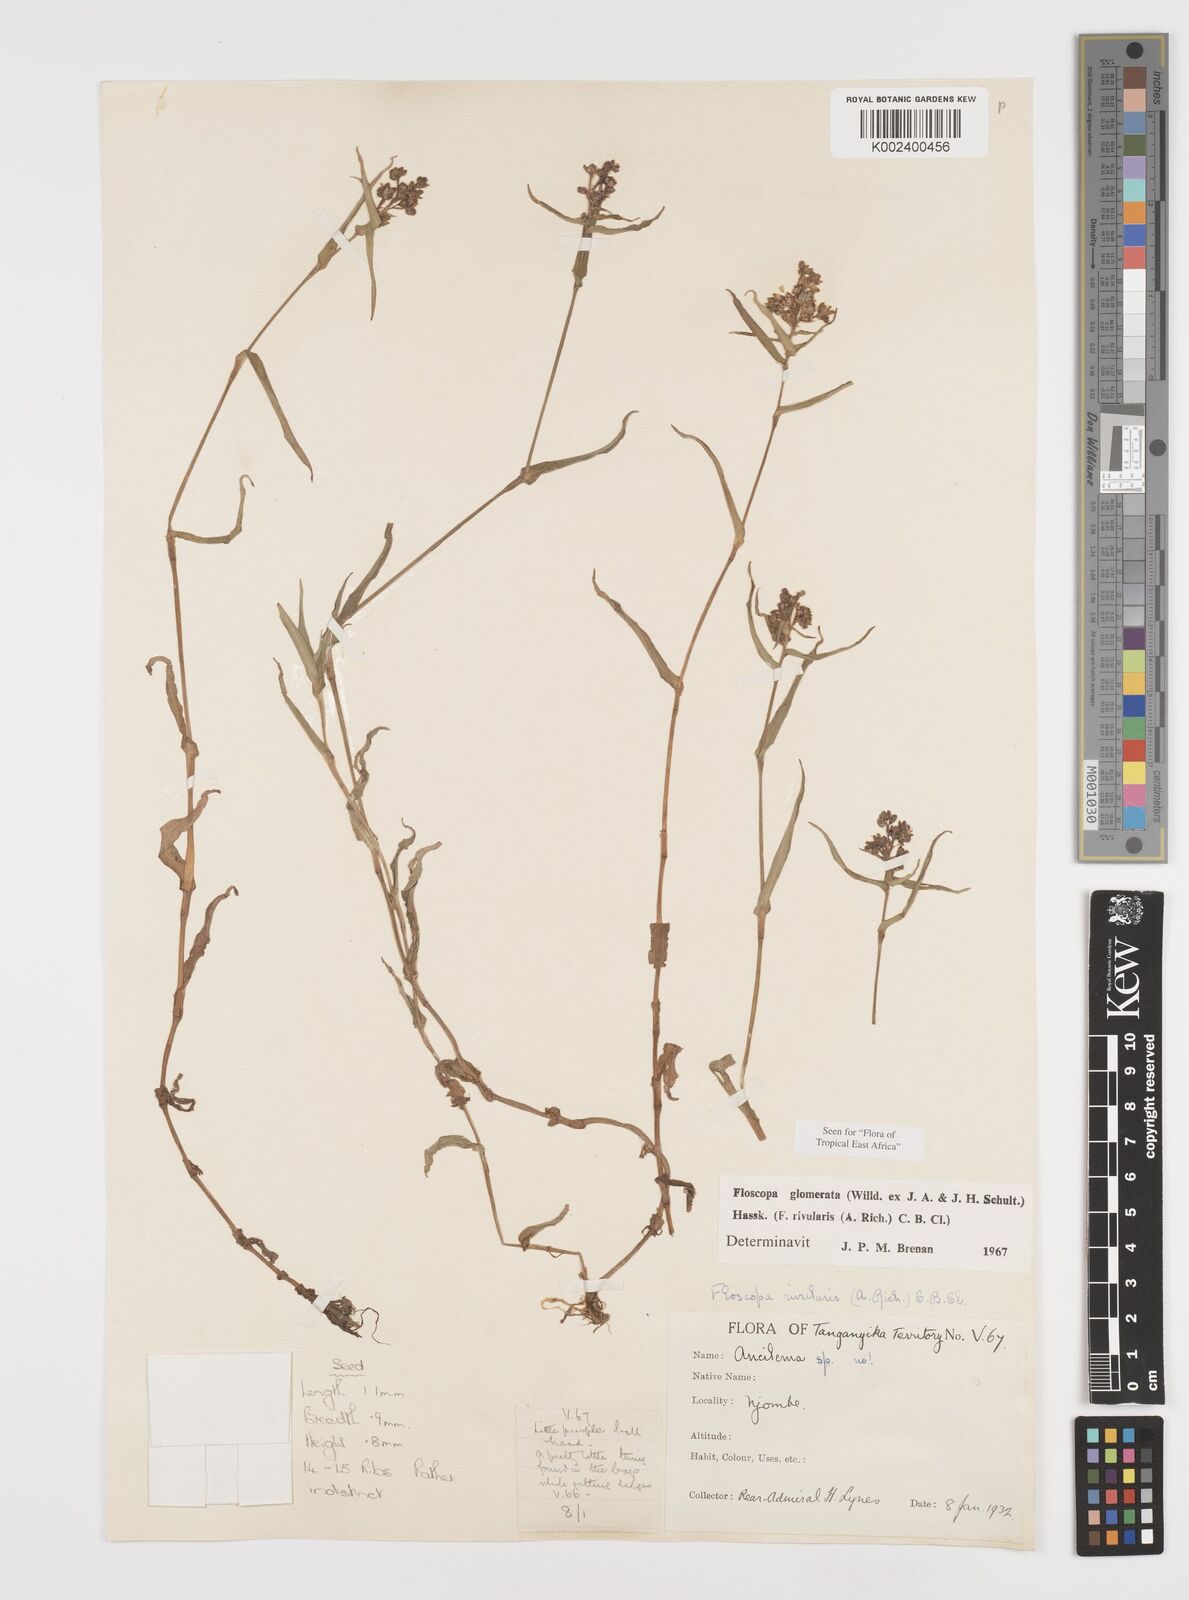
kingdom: Plantae
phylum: Tracheophyta
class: Liliopsida
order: Commelinales
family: Commelinaceae
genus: Floscopa
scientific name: Floscopa glomerata
